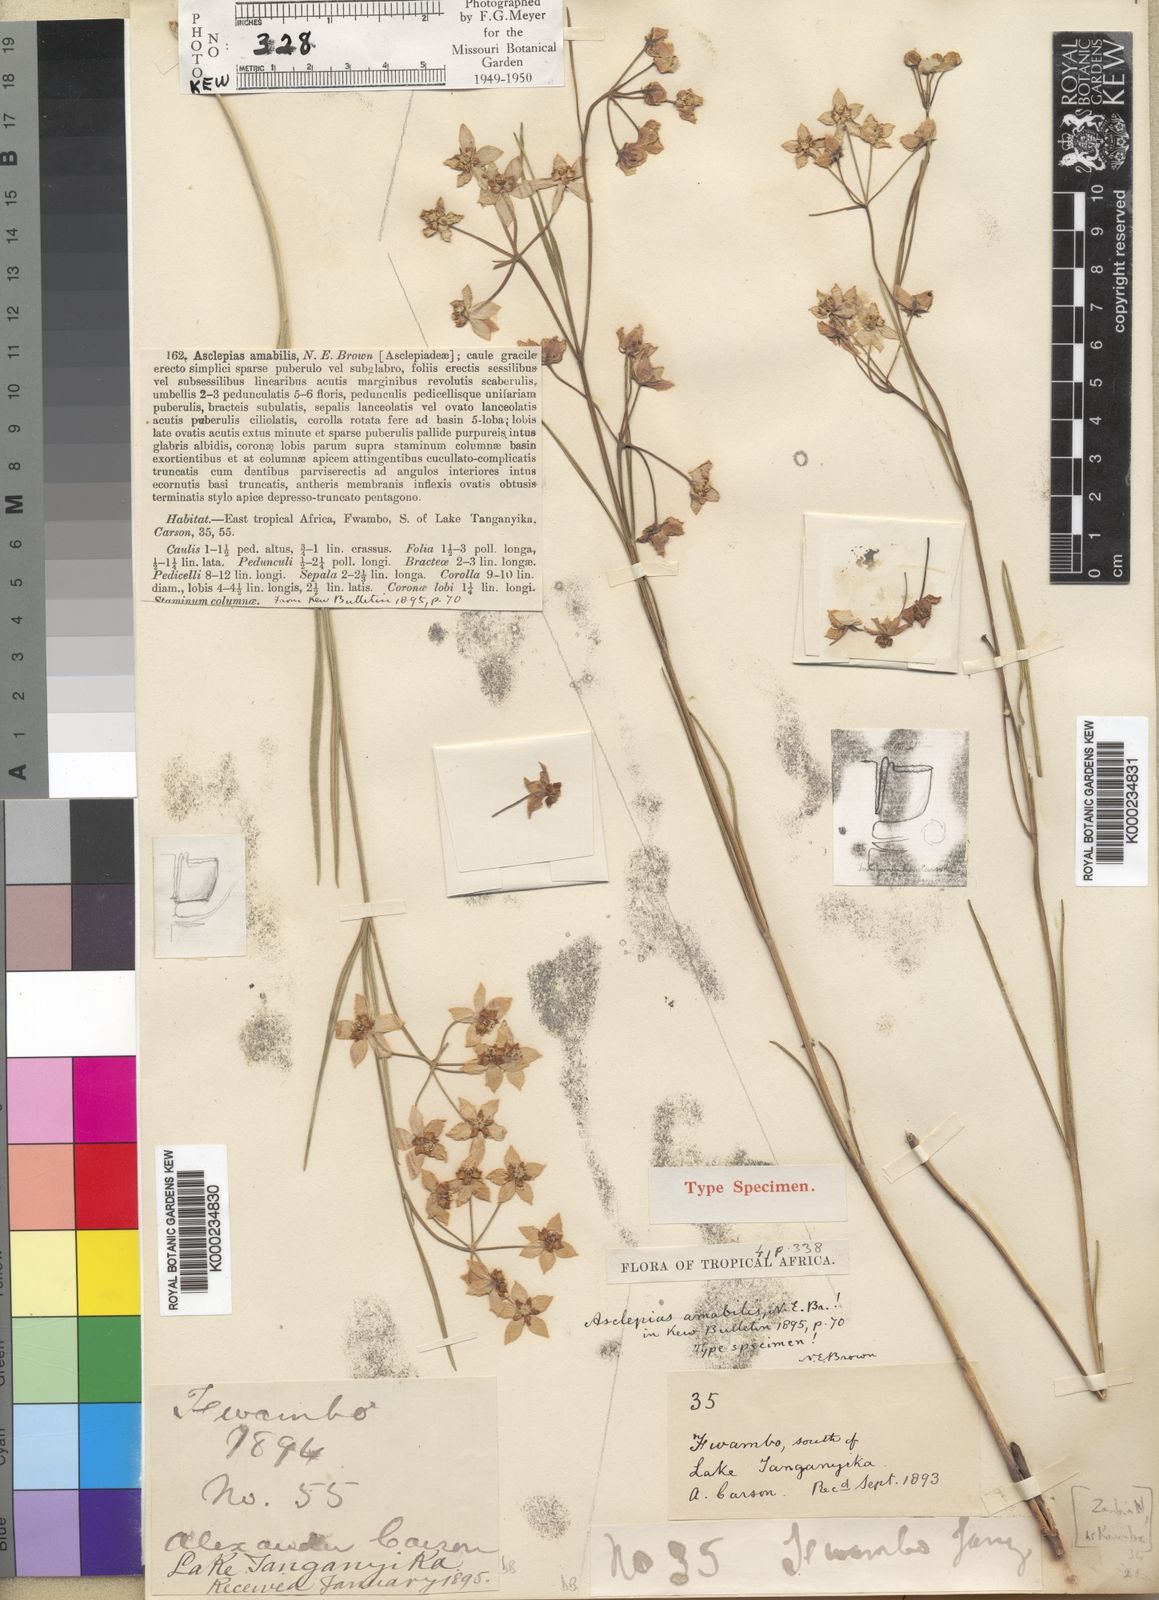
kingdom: Plantae
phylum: Tracheophyta
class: Magnoliopsida
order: Gentianales
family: Apocynaceae
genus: Asclepias
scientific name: Asclepias amabilis
